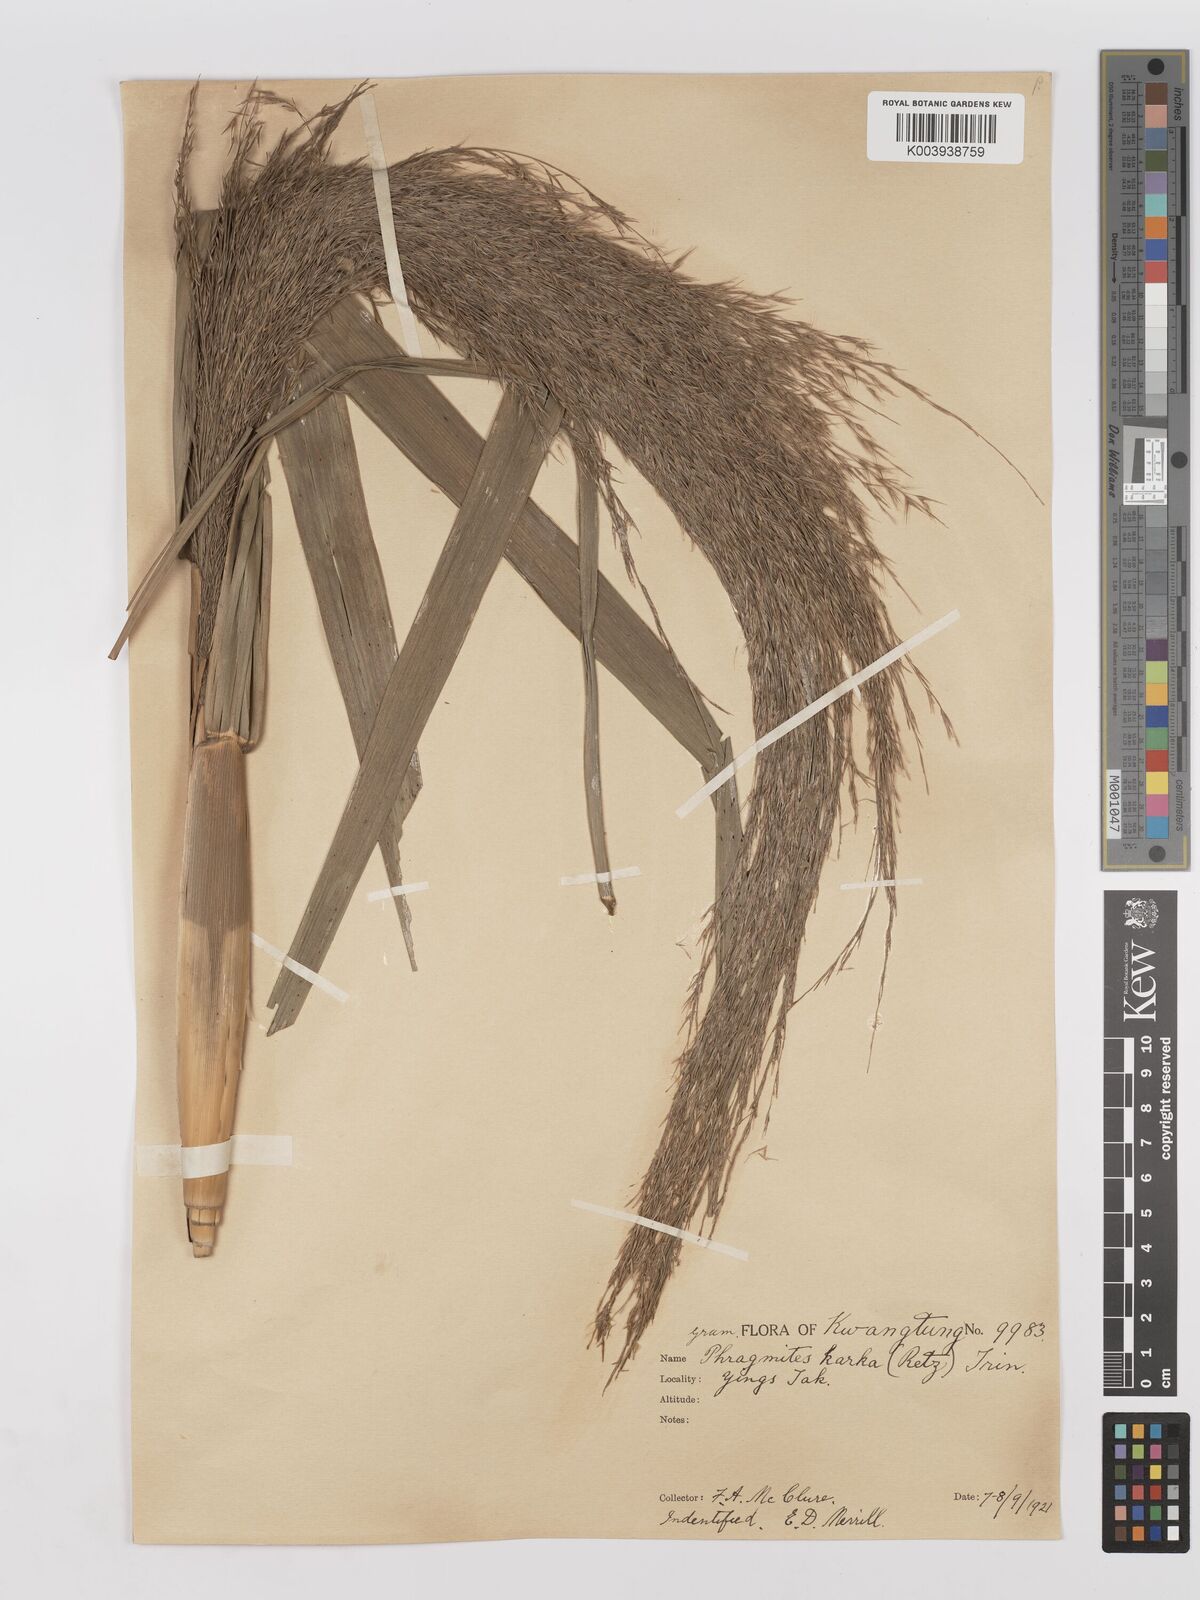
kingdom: Plantae
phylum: Tracheophyta
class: Liliopsida
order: Poales
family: Poaceae
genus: Phragmites
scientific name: Phragmites karka
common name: Tropical reed
